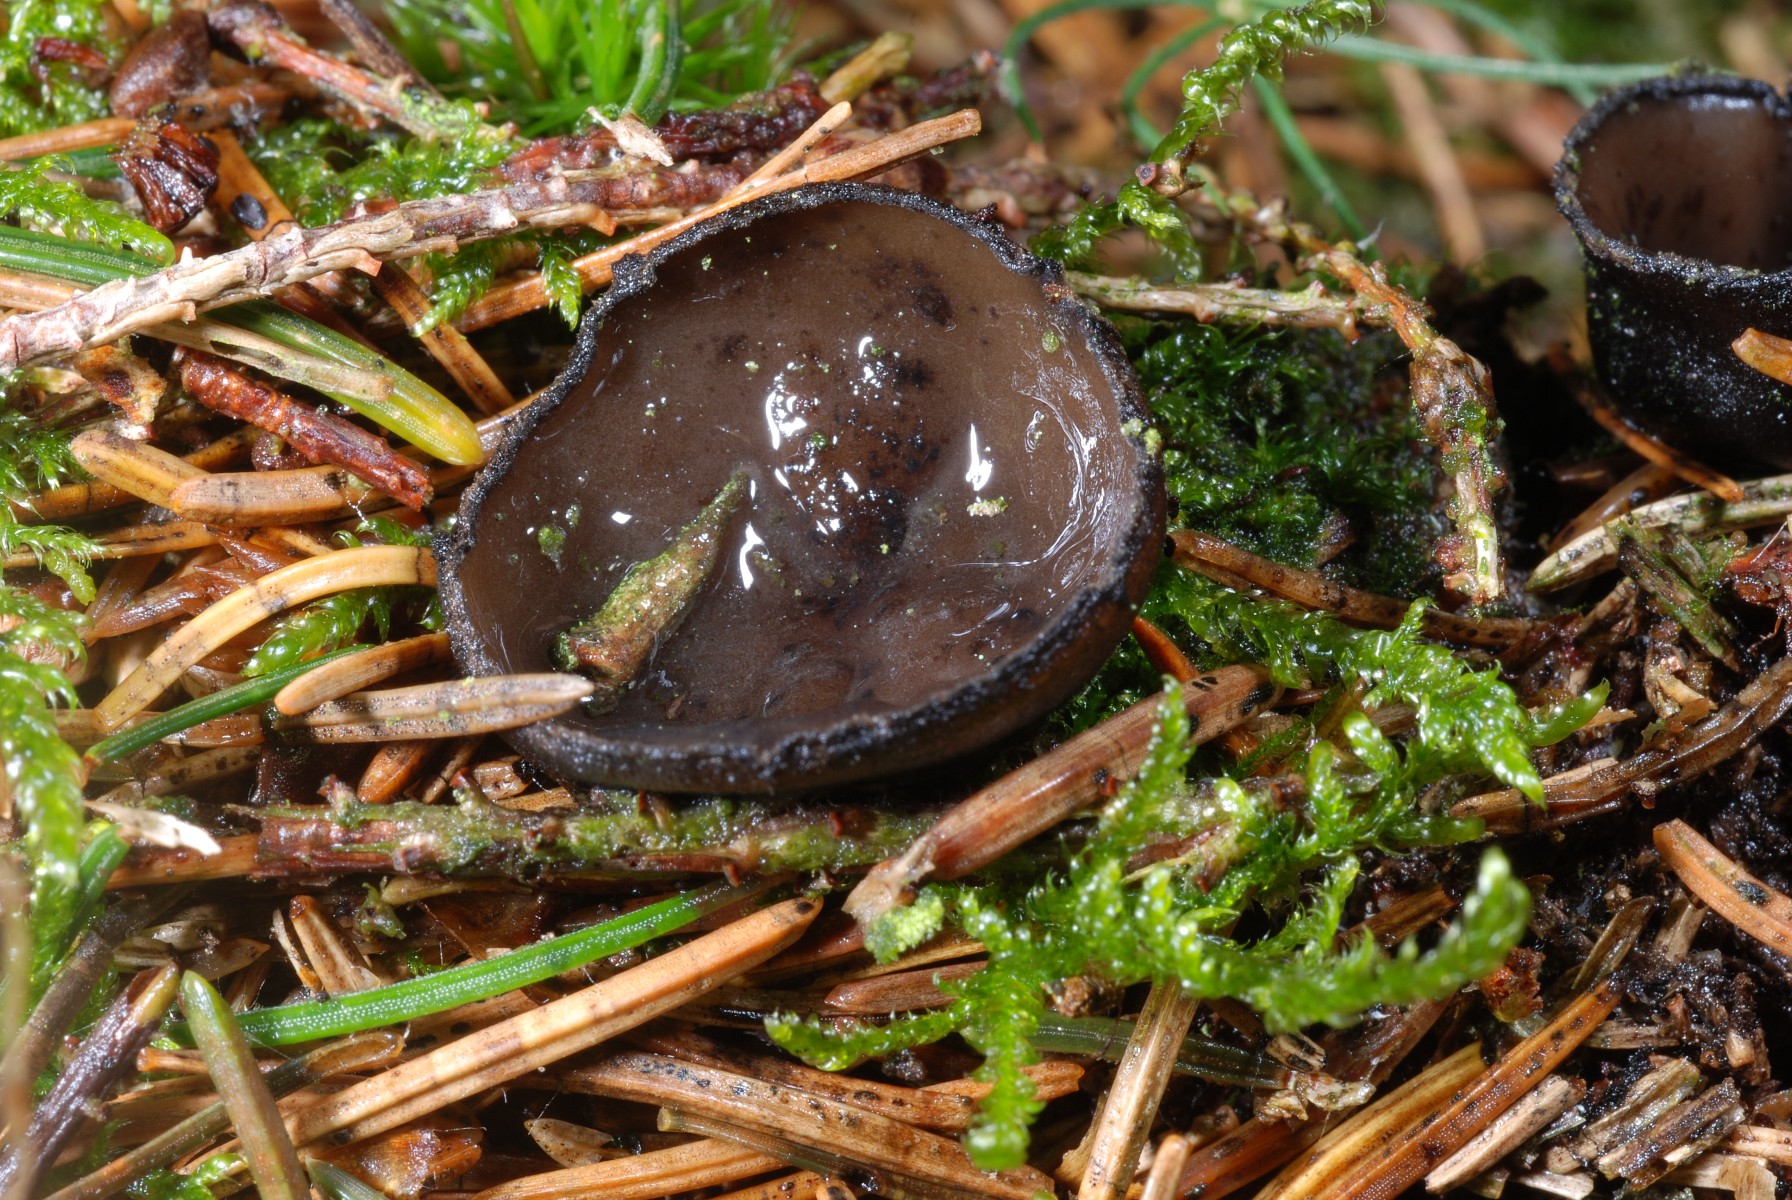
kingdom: Fungi
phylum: Ascomycota
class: Pezizomycetes
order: Pezizales
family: Sarcosomataceae
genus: Pseudoplectania
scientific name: Pseudoplectania nigrella
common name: almindelig sortbæger
